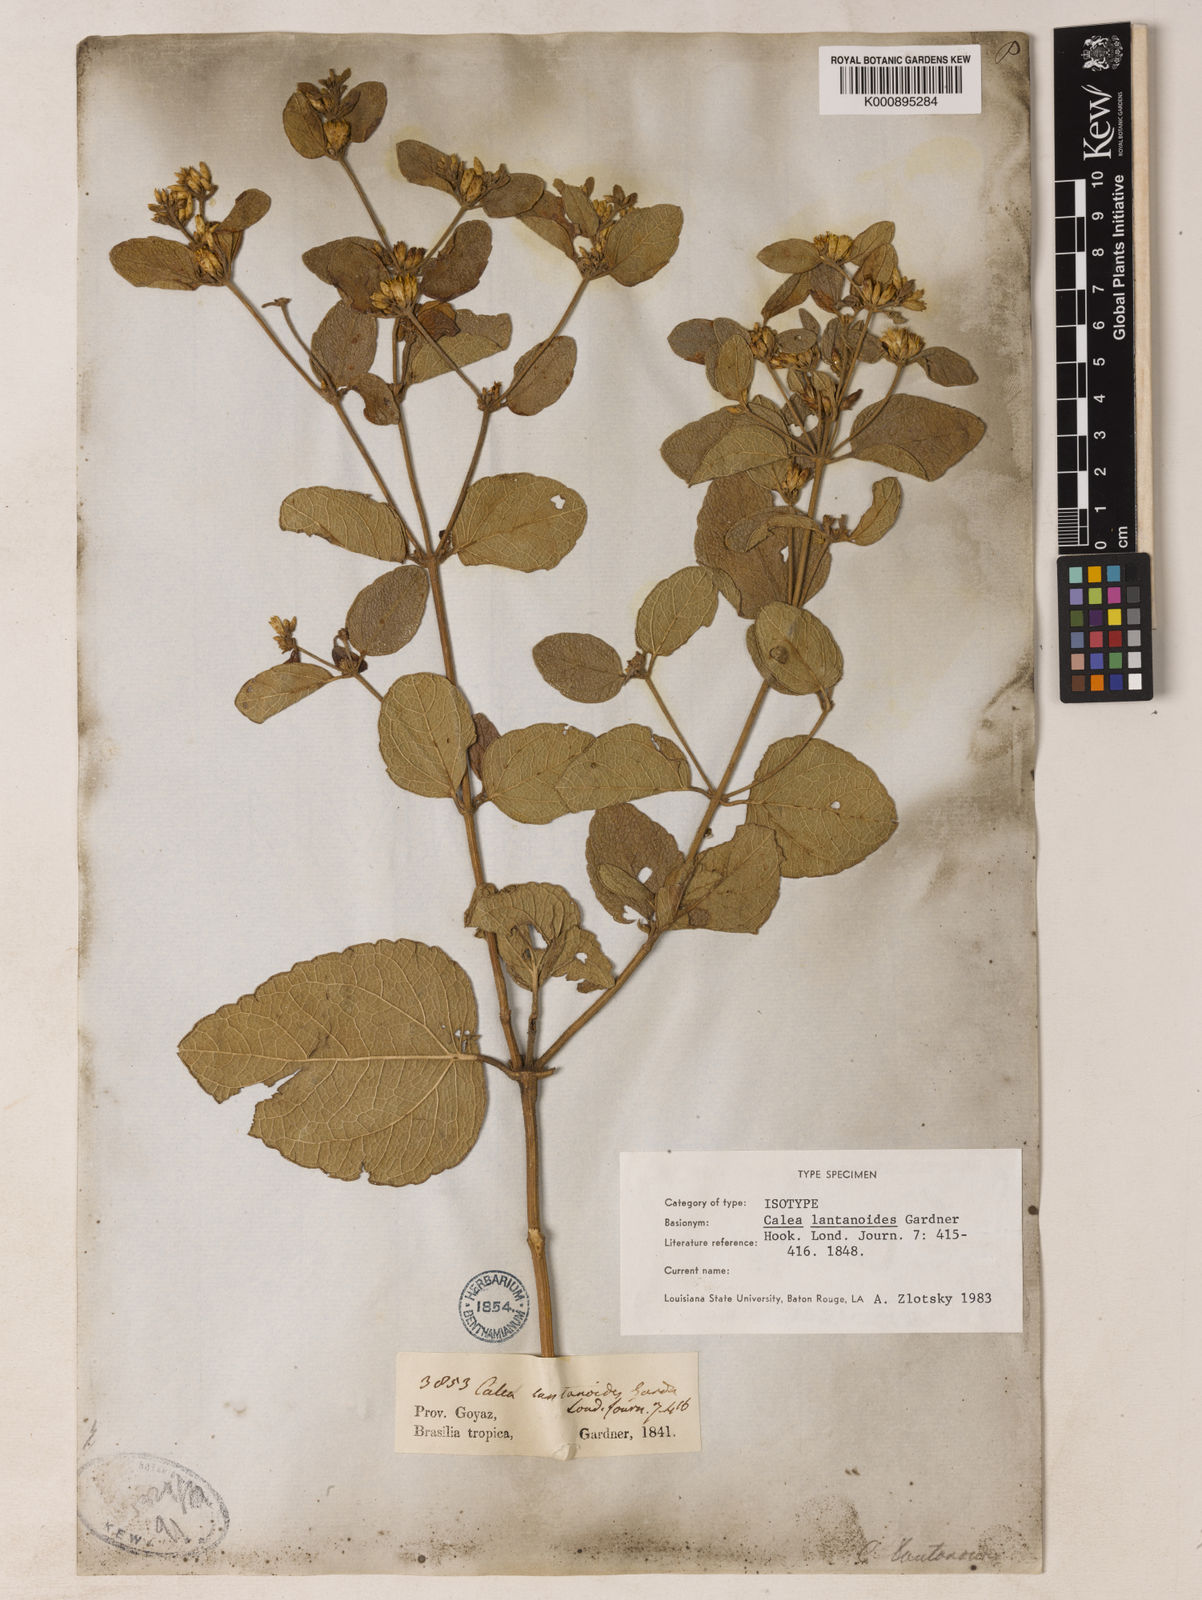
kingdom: Plantae
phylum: Tracheophyta
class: Magnoliopsida
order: Asterales
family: Asteraceae
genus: Calea
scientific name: Calea lantanoides
